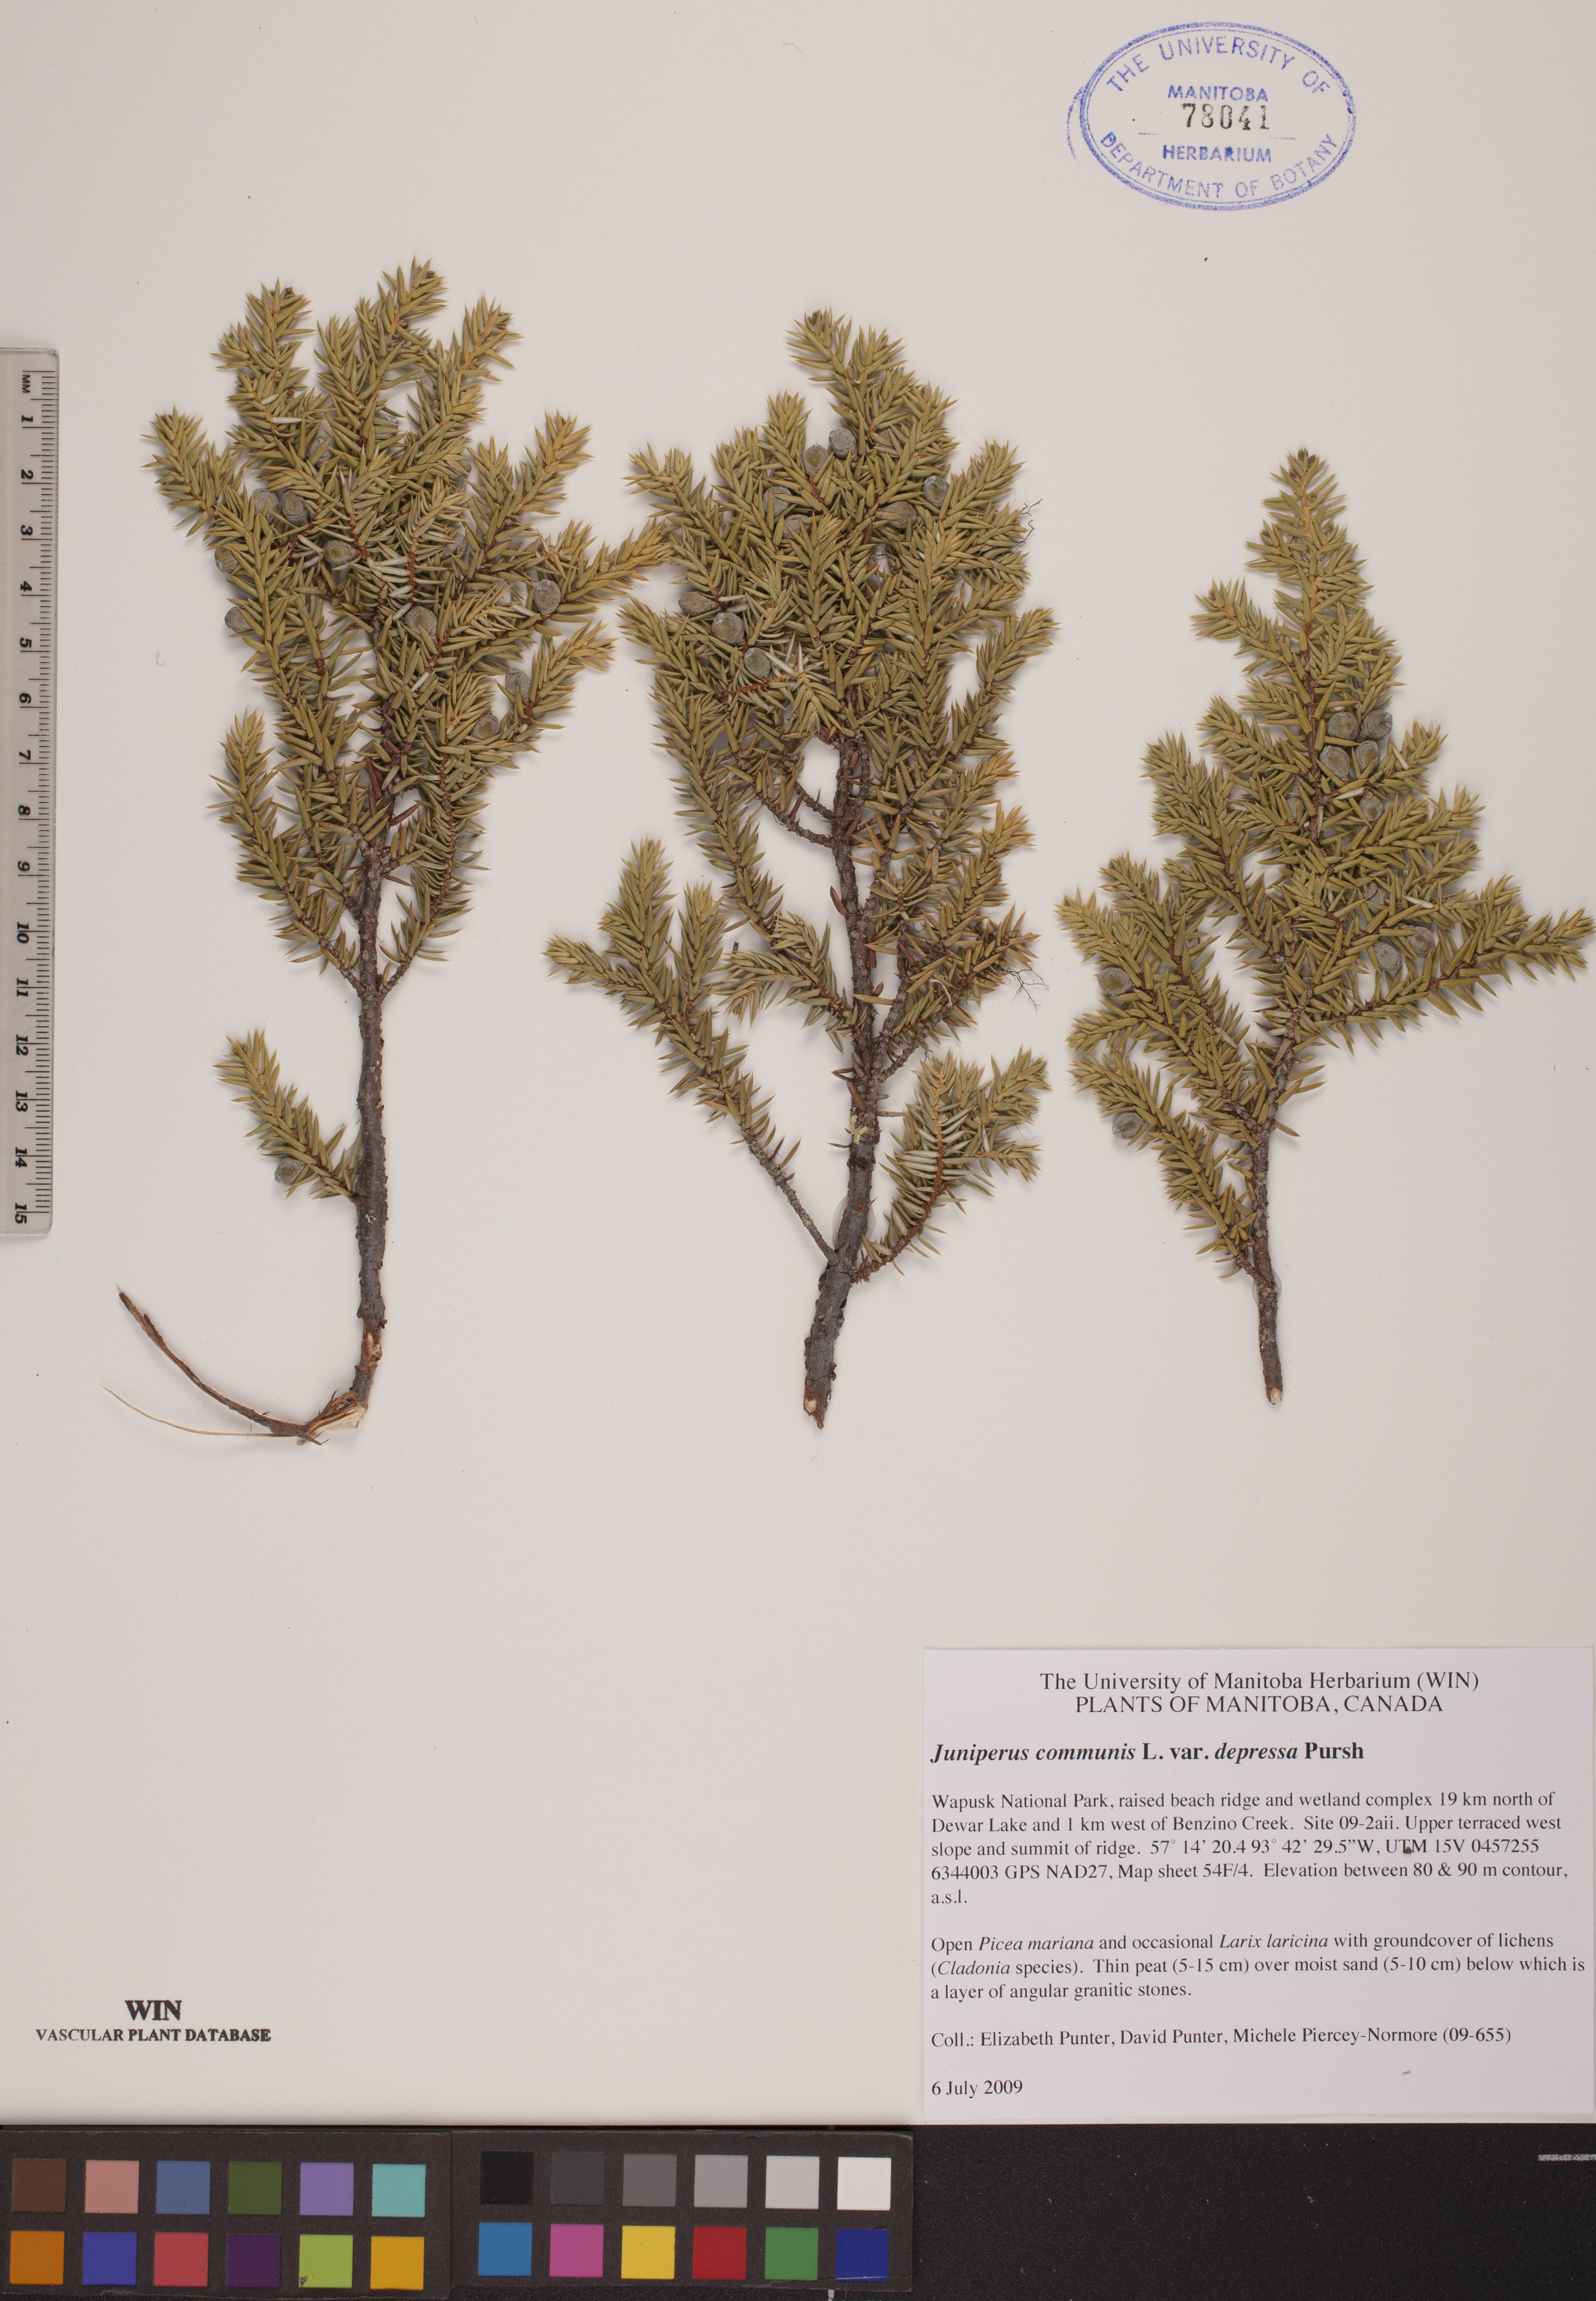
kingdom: Plantae
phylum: Tracheophyta
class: Pinopsida
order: Pinales
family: Cupressaceae
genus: Juniperus
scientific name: Juniperus communis
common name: Common juniper
